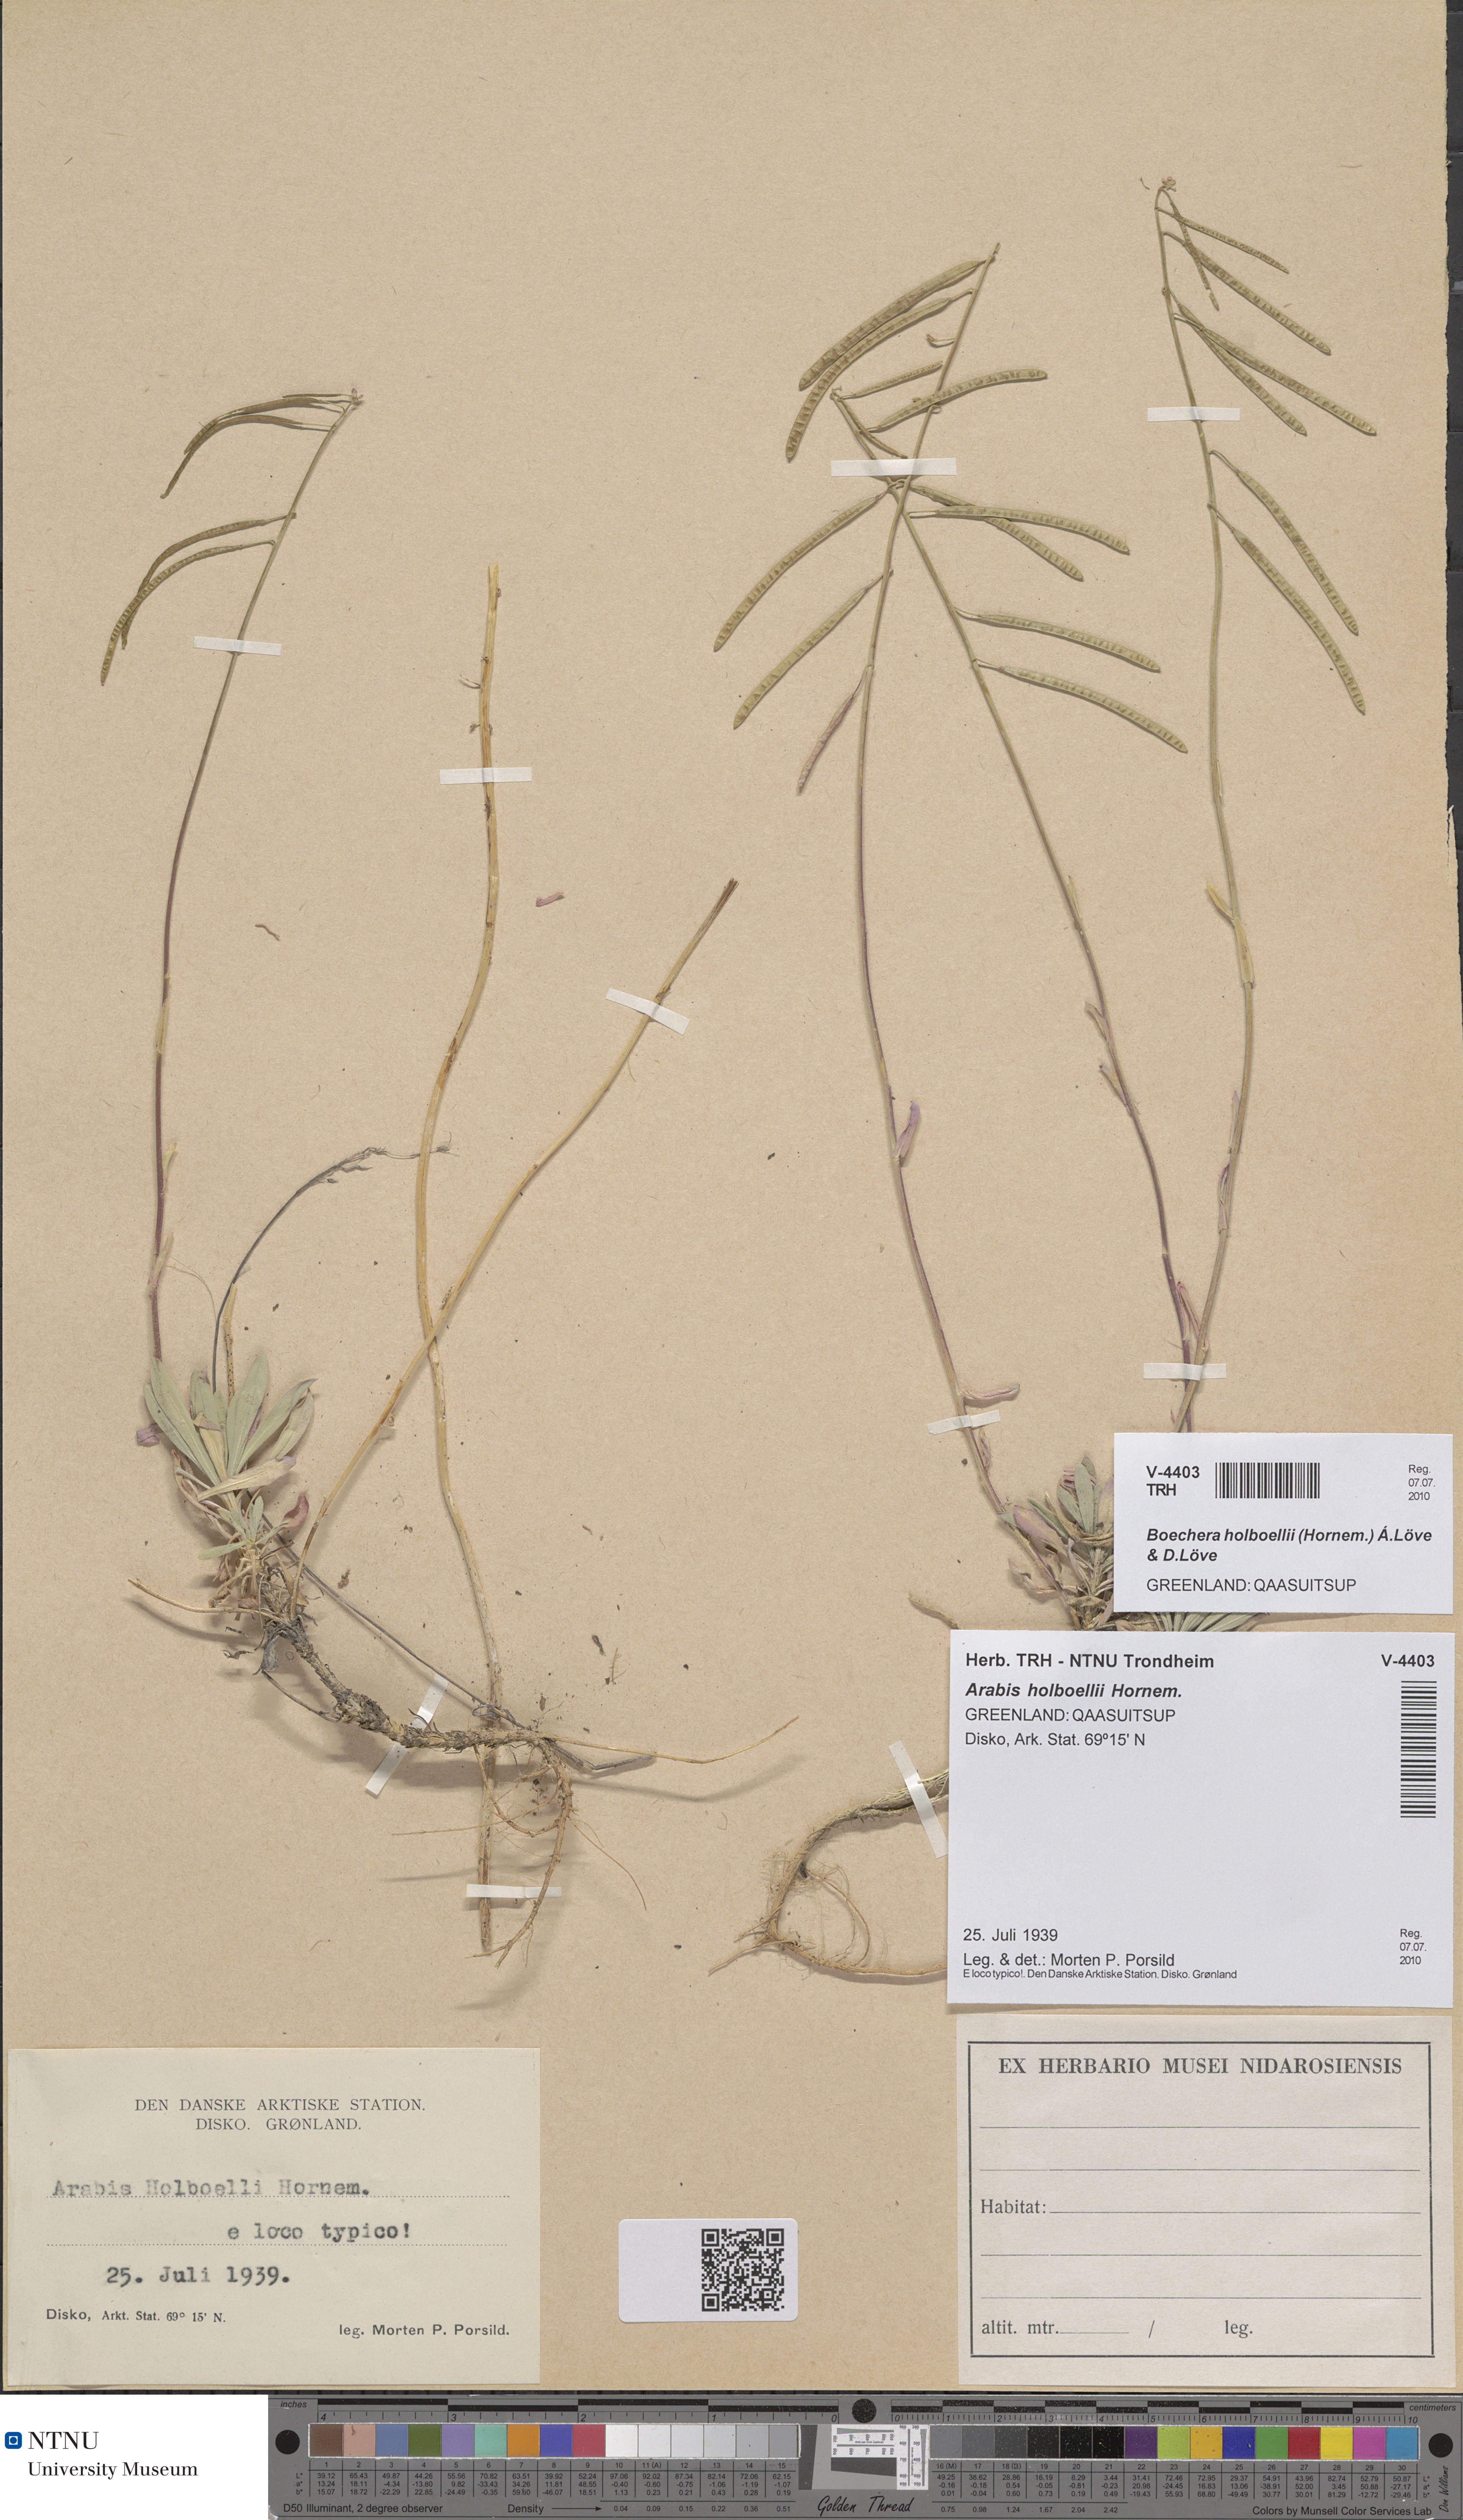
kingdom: Plantae
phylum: Tracheophyta
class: Magnoliopsida
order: Brassicales
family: Brassicaceae
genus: Boechera
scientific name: Boechera holboellii
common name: Holboell's rockcress
